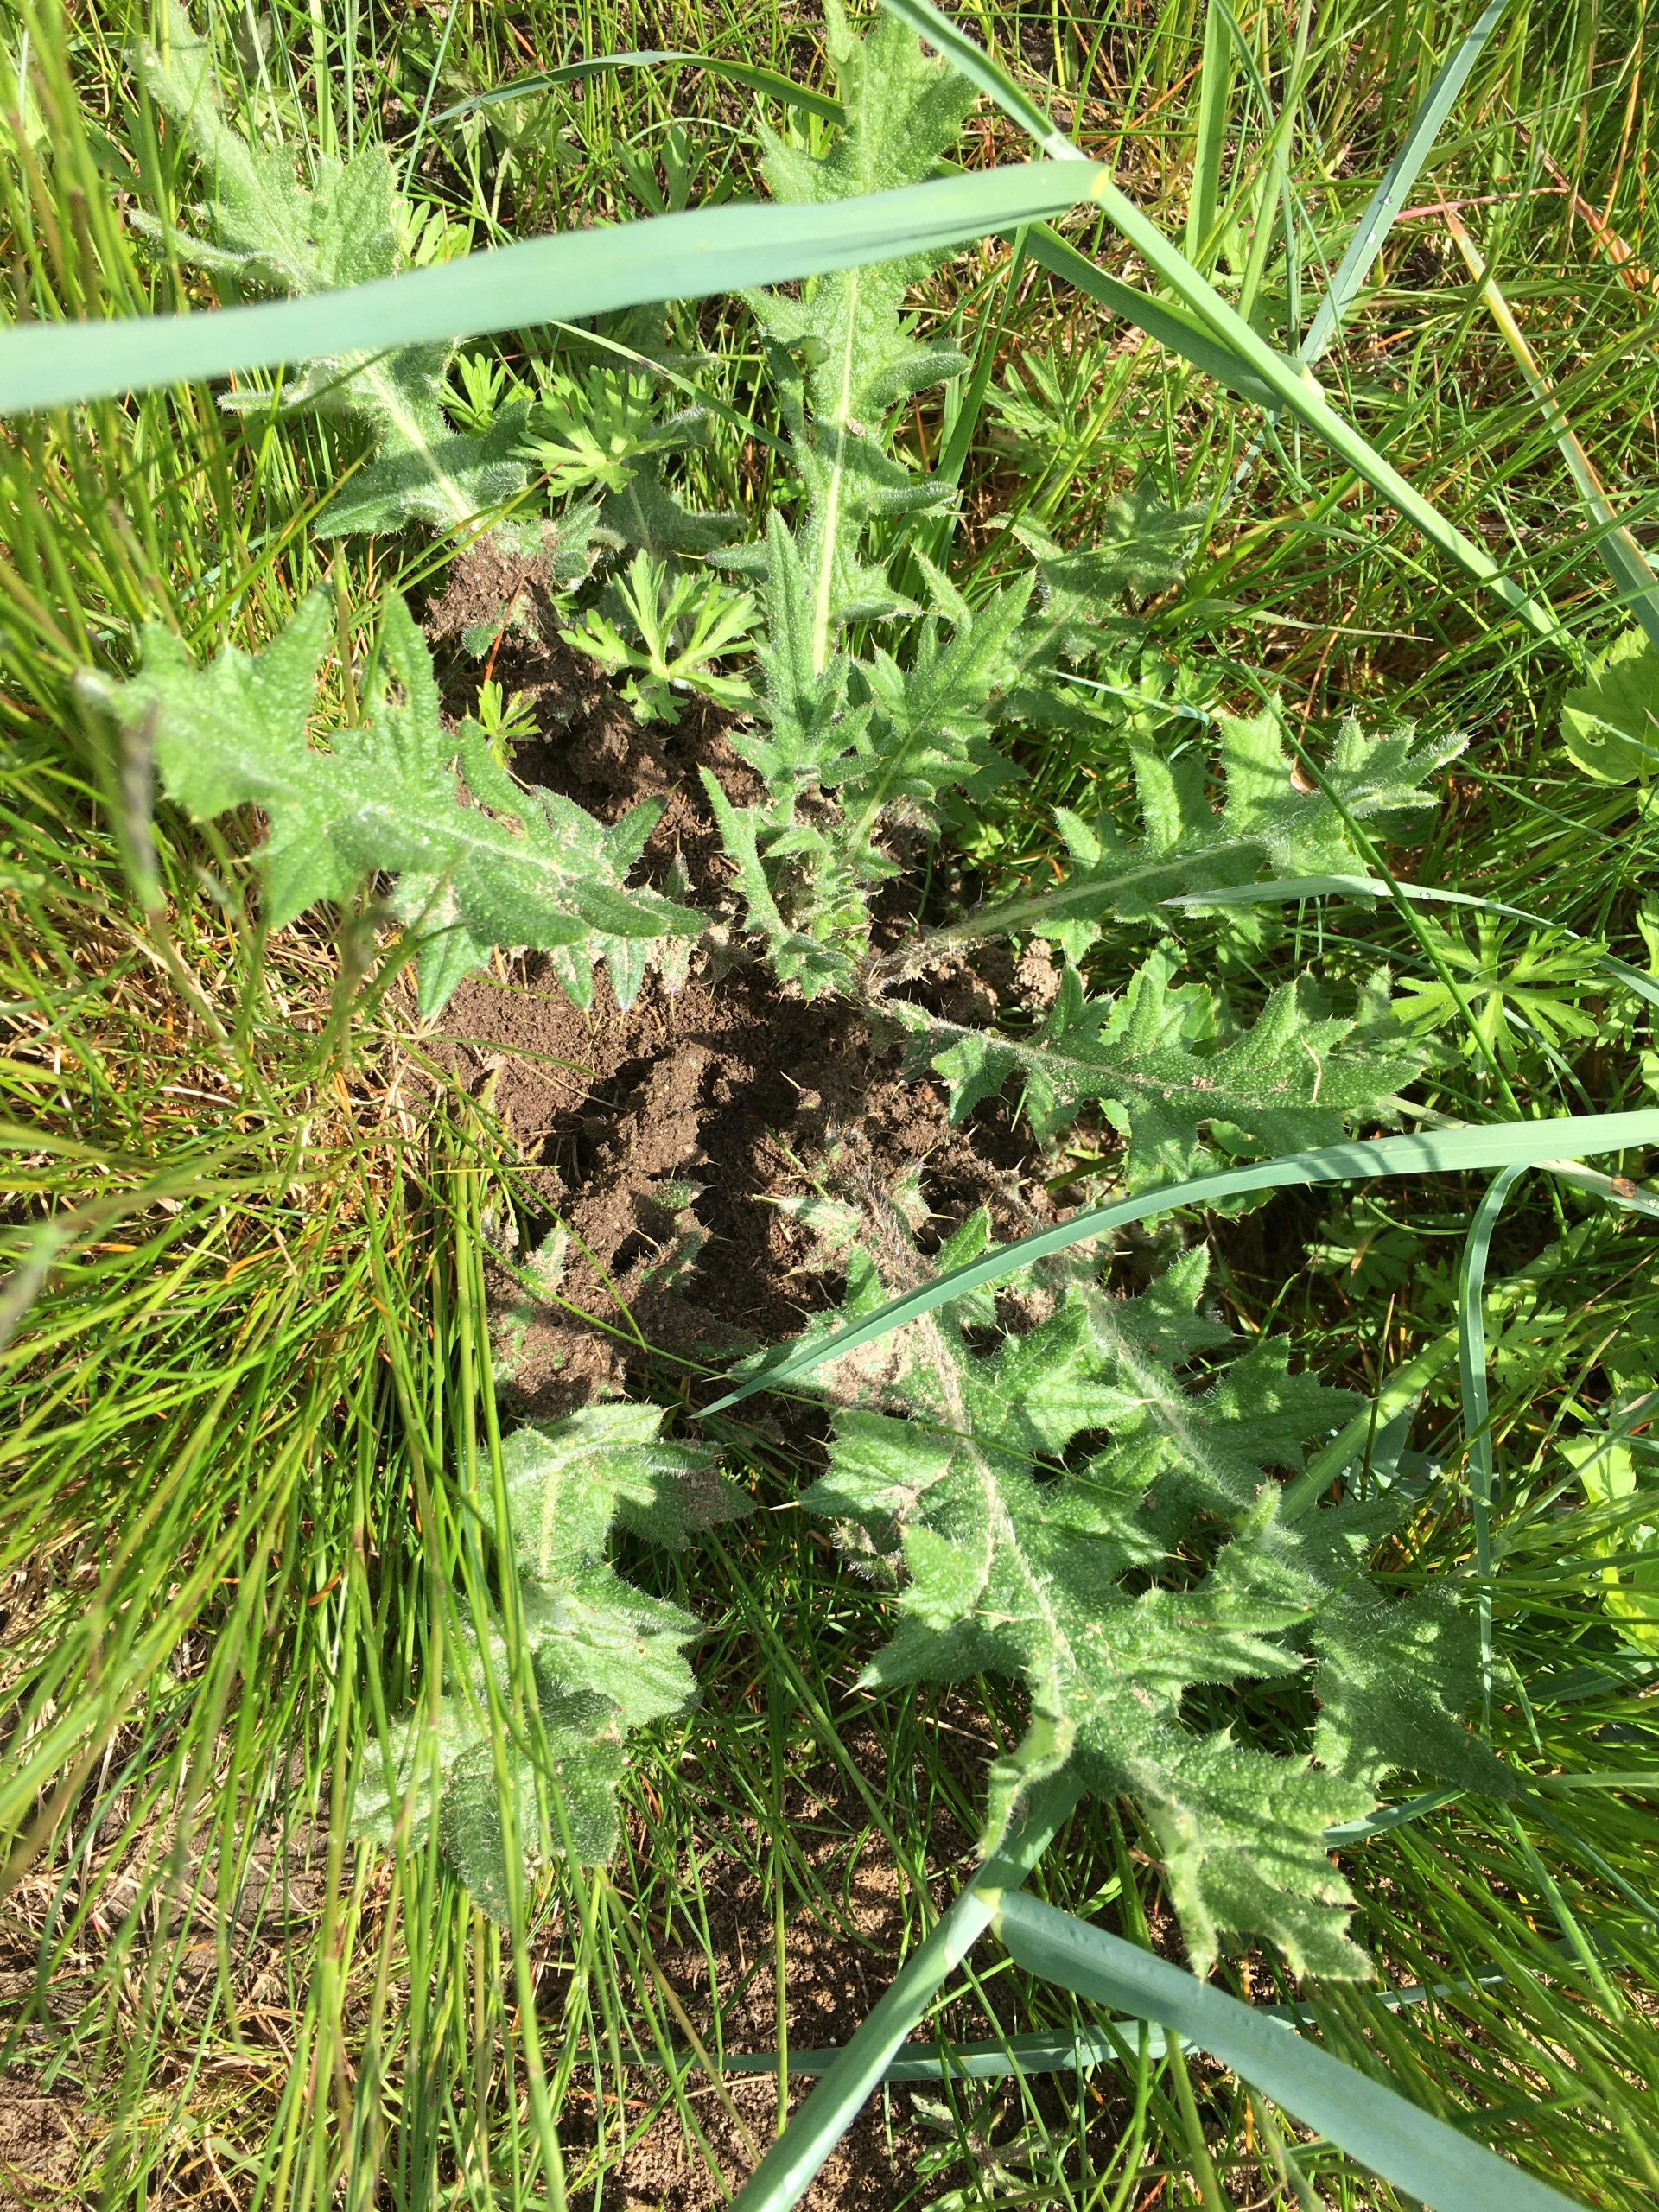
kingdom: Plantae
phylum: Tracheophyta
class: Magnoliopsida
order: Asterales
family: Asteraceae
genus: Cirsium
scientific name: Cirsium vulgare
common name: Horse-tidsel
